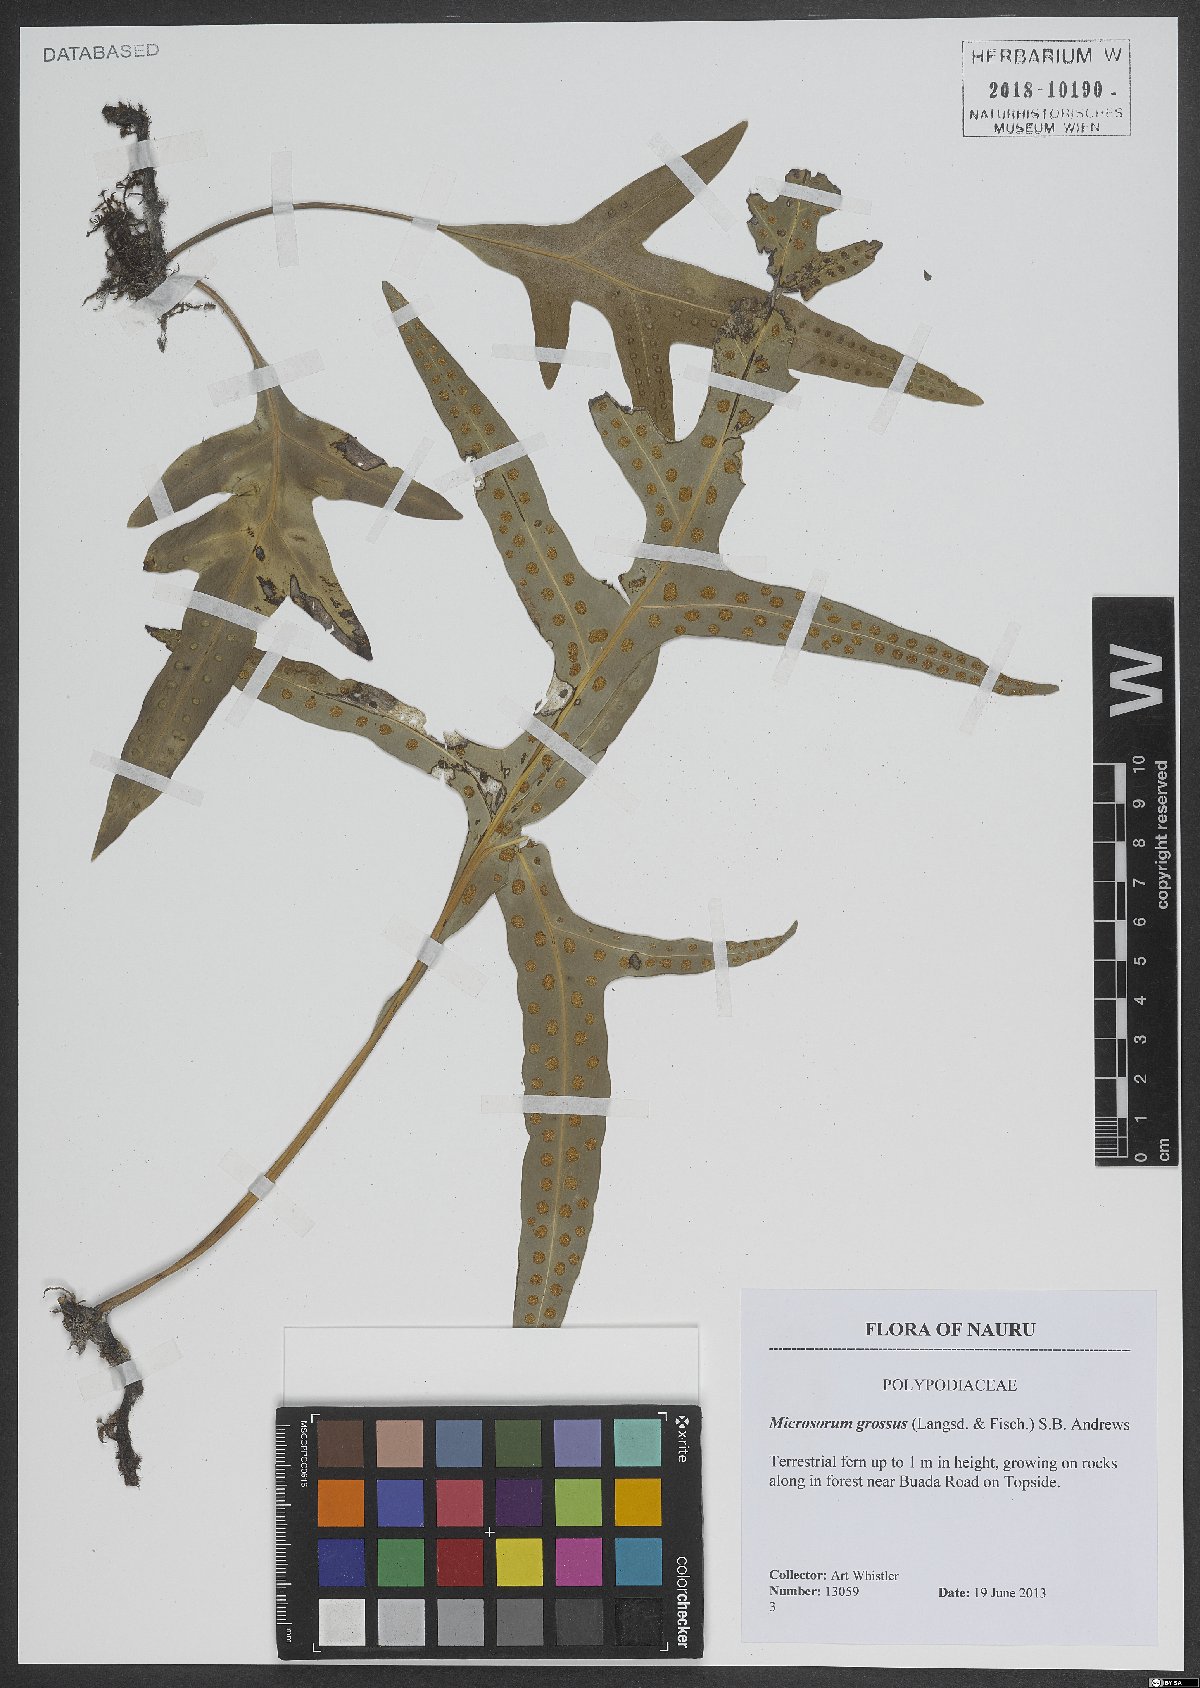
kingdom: Plantae
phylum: Tracheophyta
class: Polypodiopsida
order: Polypodiales
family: Polypodiaceae
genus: Microsorum
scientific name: Microsorum grossum
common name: Musk fern
